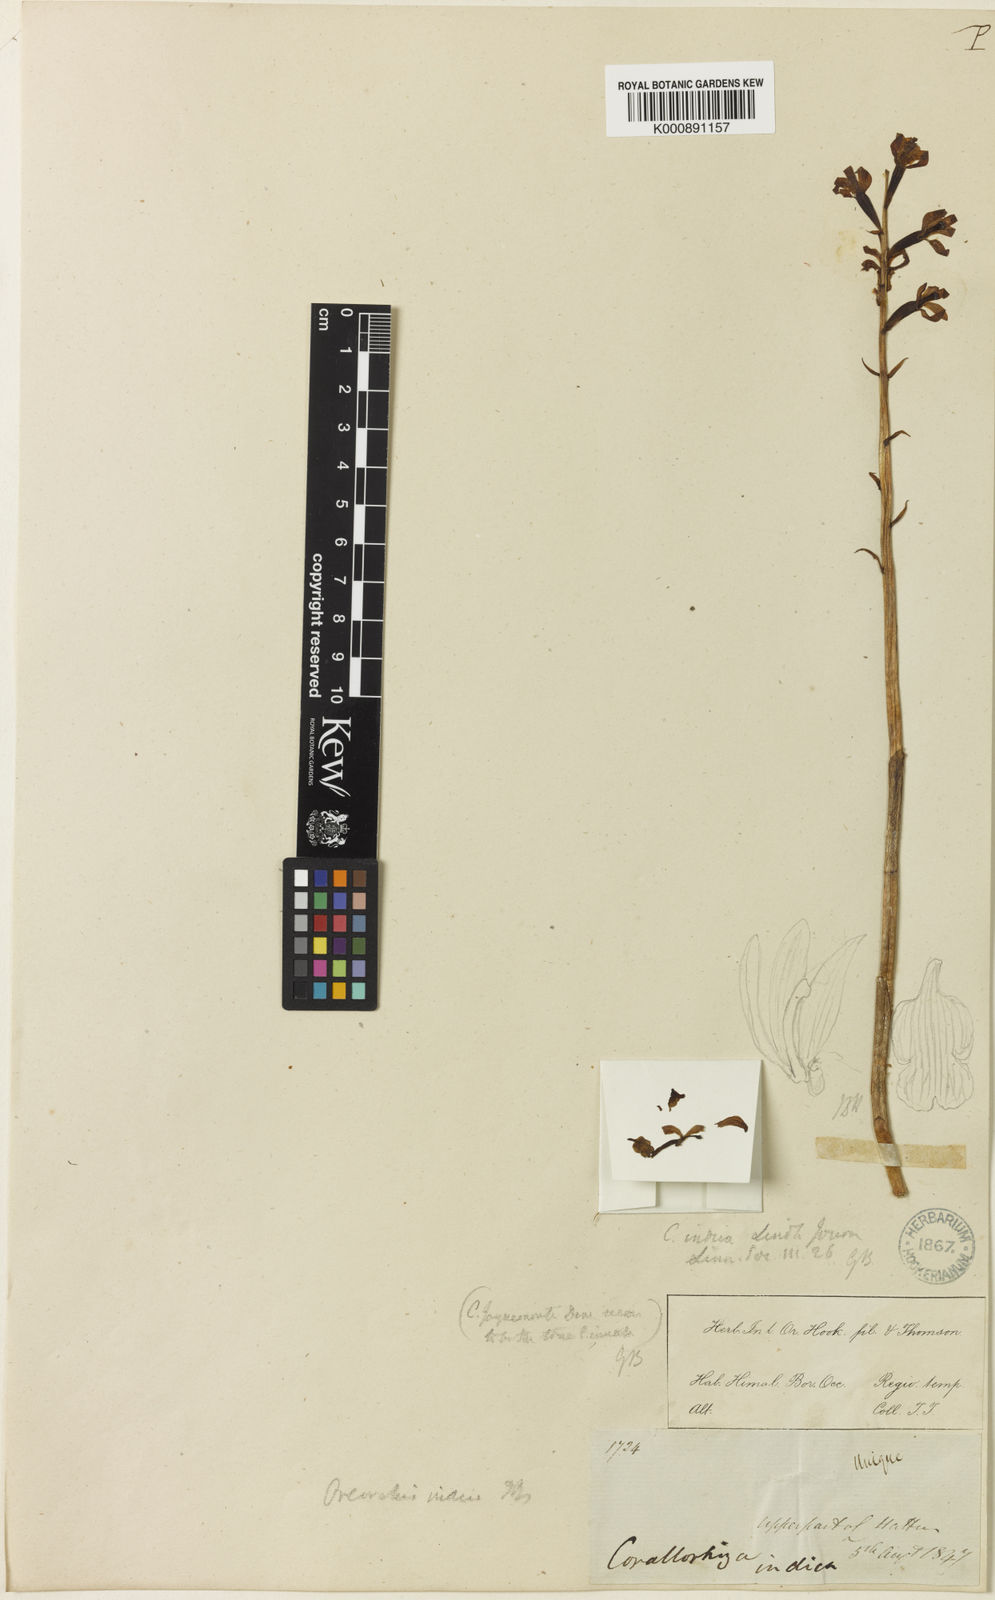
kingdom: Plantae
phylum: Tracheophyta
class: Liliopsida
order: Asparagales
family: Orchidaceae
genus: Oreorchis
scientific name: Oreorchis indica
